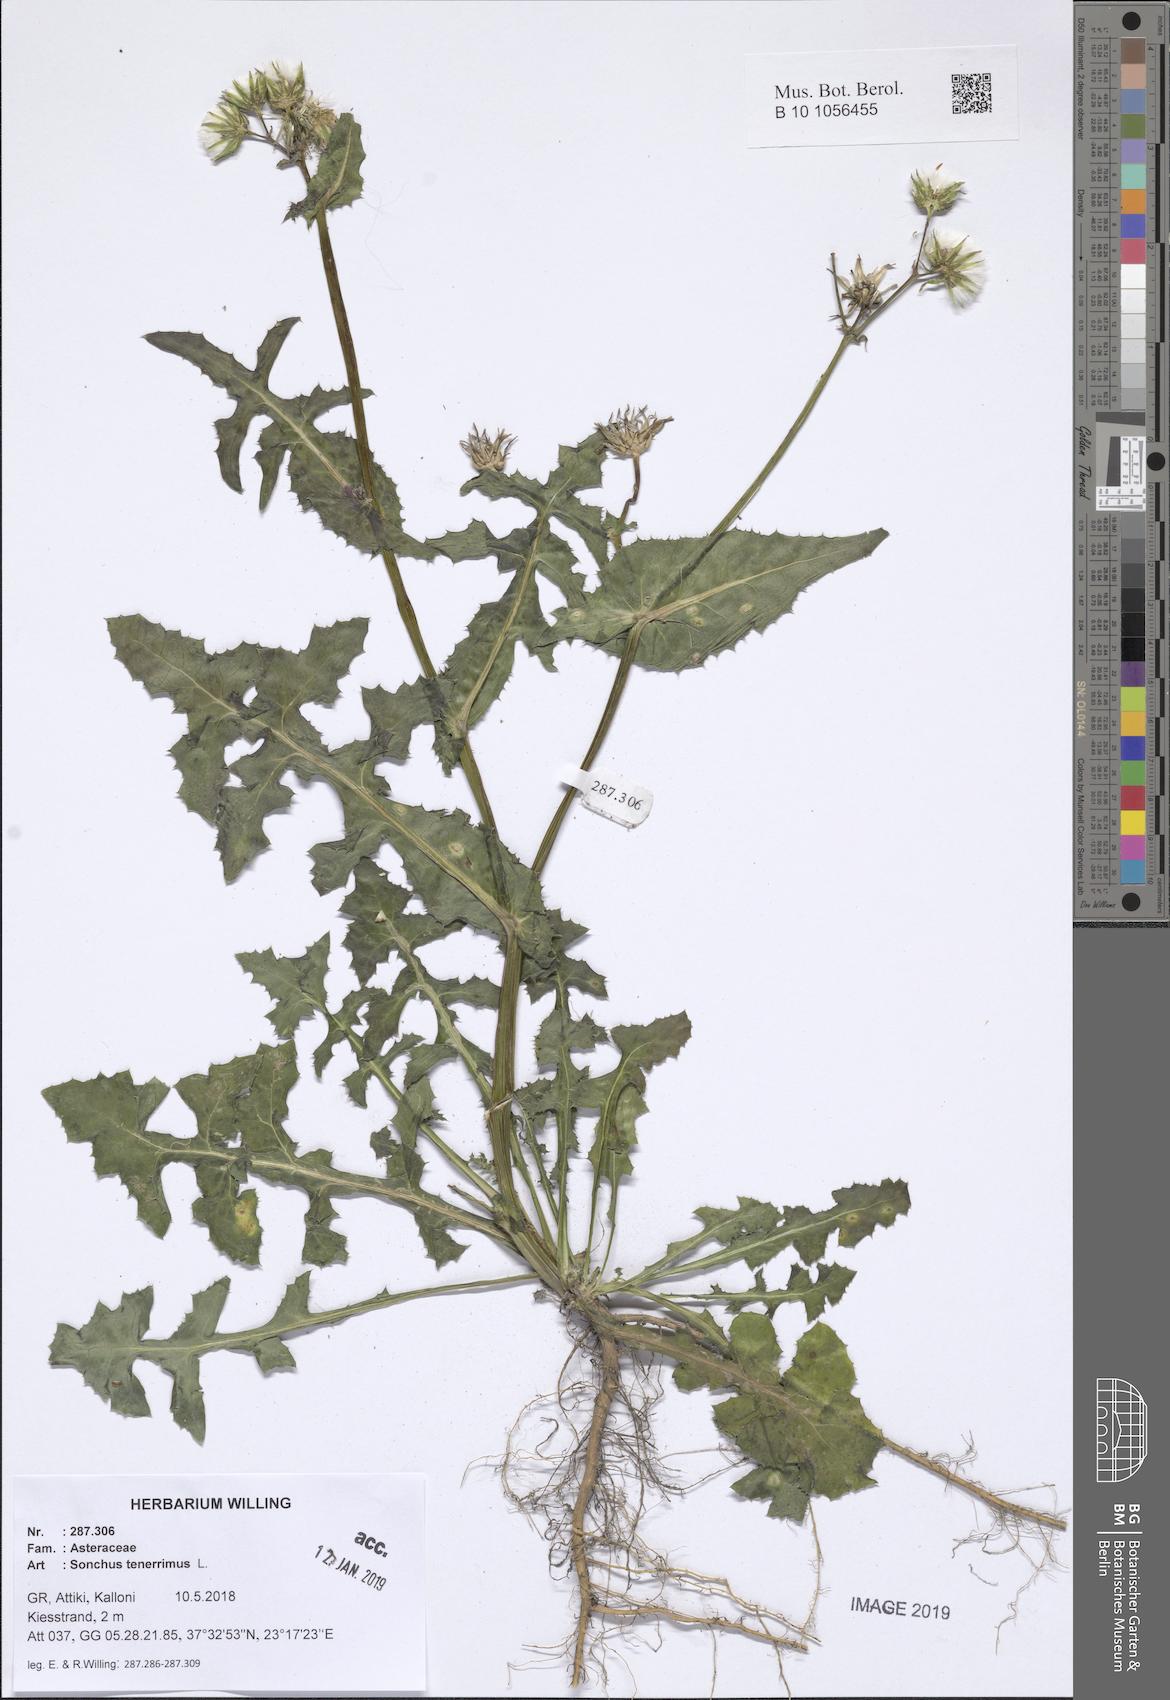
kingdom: Plantae
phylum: Tracheophyta
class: Magnoliopsida
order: Asterales
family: Asteraceae
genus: Sonchus
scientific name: Sonchus tenerrimus
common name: Clammy sowthistle
